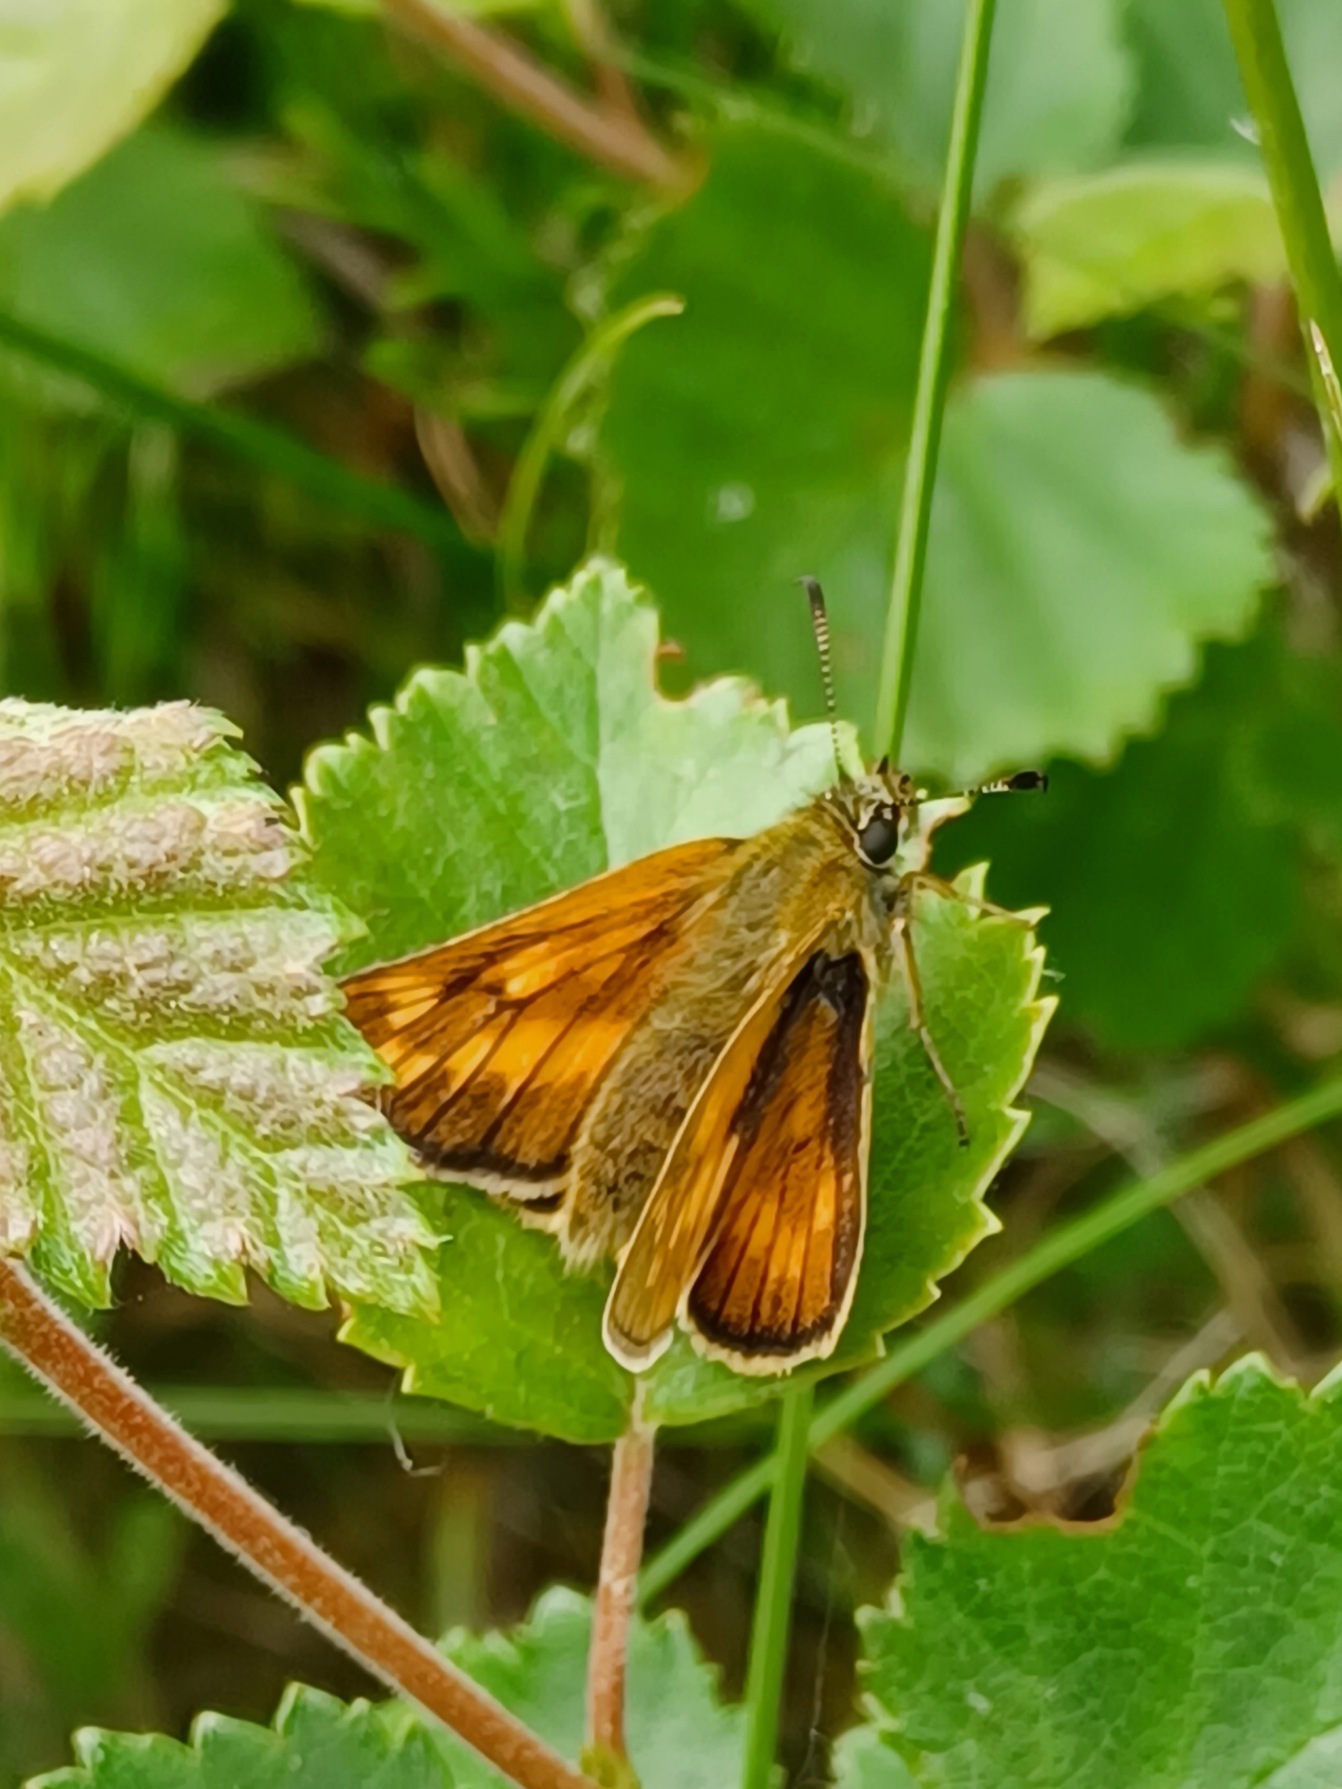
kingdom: Animalia
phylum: Arthropoda
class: Insecta
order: Lepidoptera
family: Hesperiidae
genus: Ochlodes
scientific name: Ochlodes venata
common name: Stor bredpande
